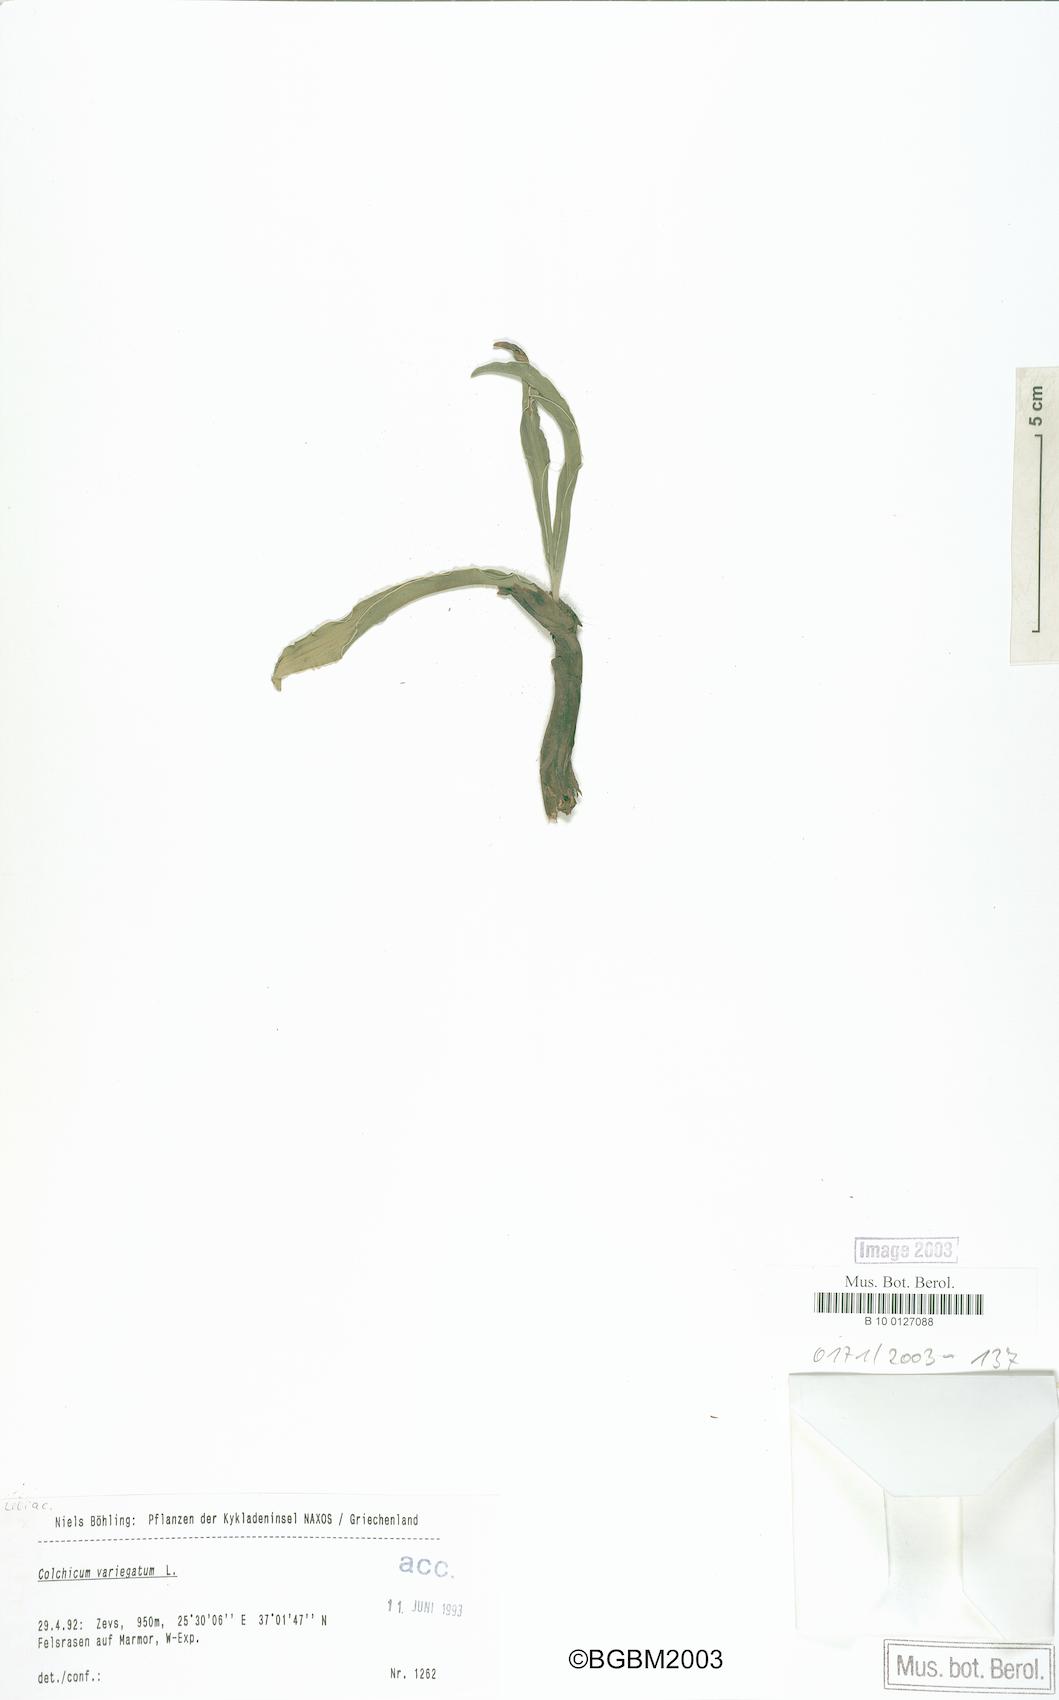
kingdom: Plantae
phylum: Tracheophyta
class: Liliopsida
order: Liliales
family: Colchicaceae
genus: Colchicum
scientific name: Colchicum variegatum
